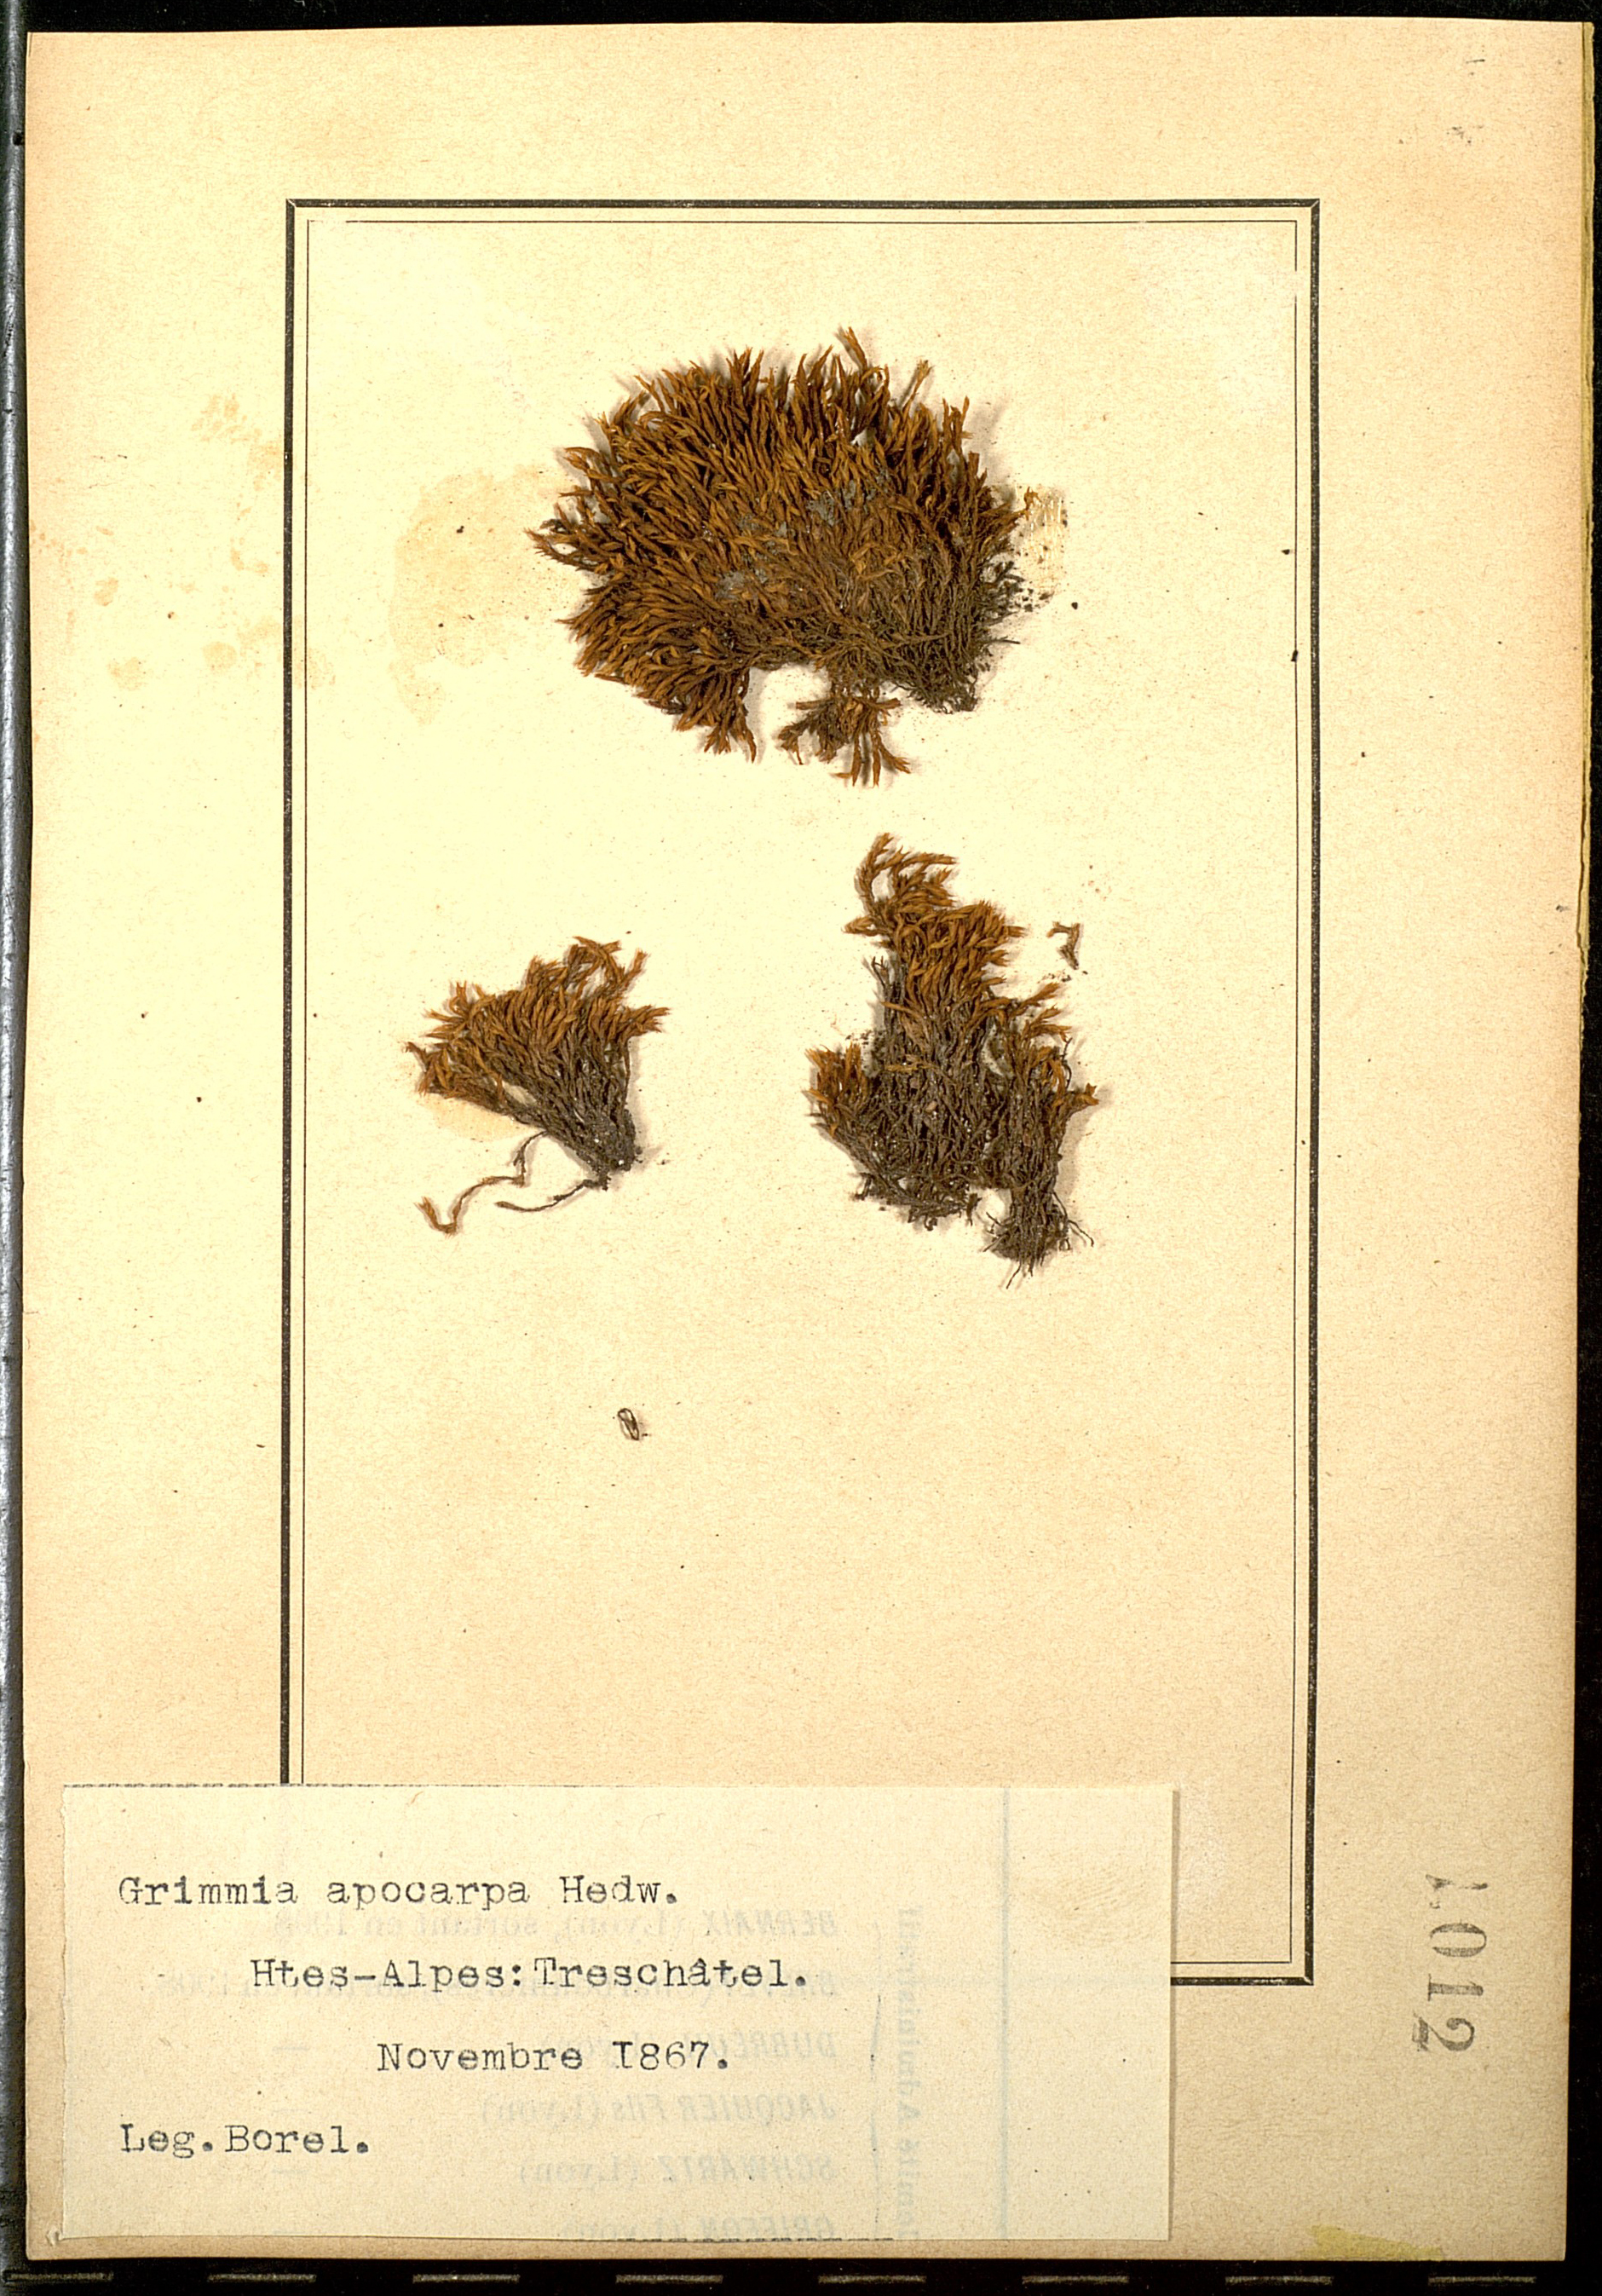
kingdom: Plantae
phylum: Bryophyta
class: Bryopsida
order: Grimmiales
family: Grimmiaceae
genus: Schistidium
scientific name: Schistidium apocarpum
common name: Radiate bloom moss
